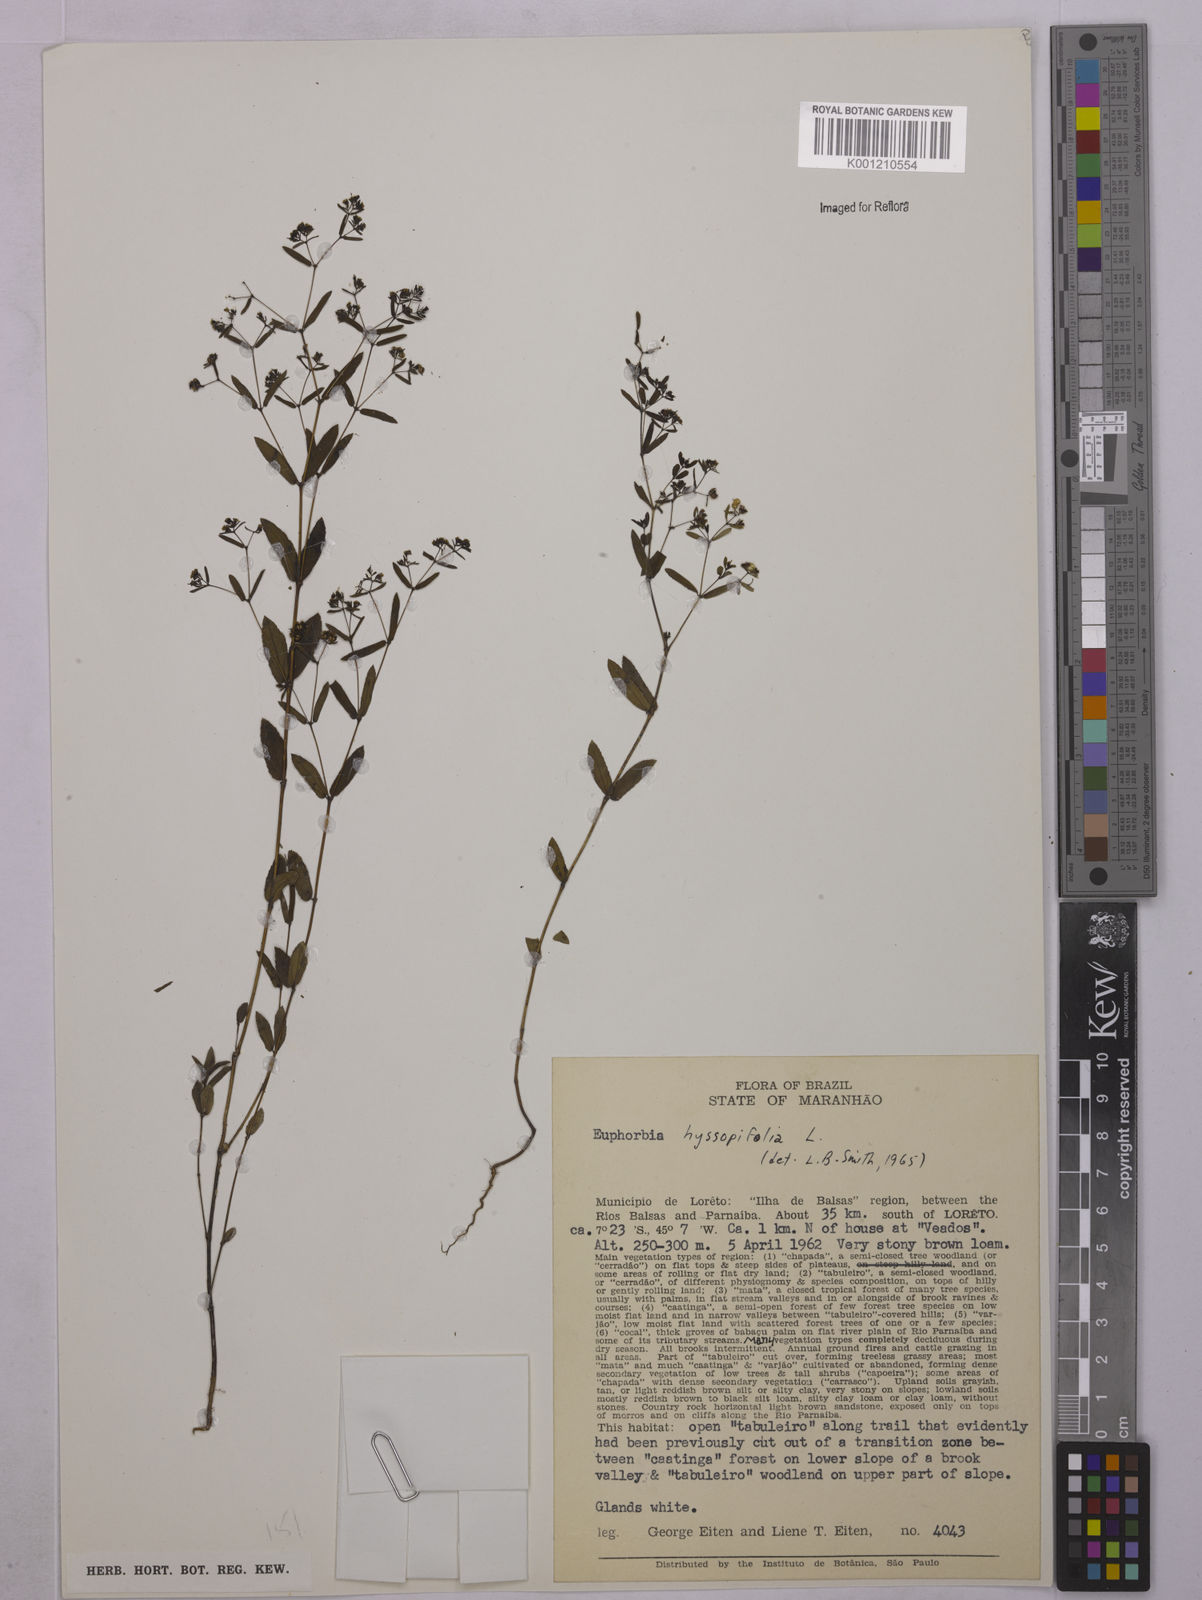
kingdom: Plantae
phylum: Tracheophyta
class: Magnoliopsida
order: Malpighiales
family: Euphorbiaceae
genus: Euphorbia
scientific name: Euphorbia hyssopifolia
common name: Hyssopleaf sandmat
